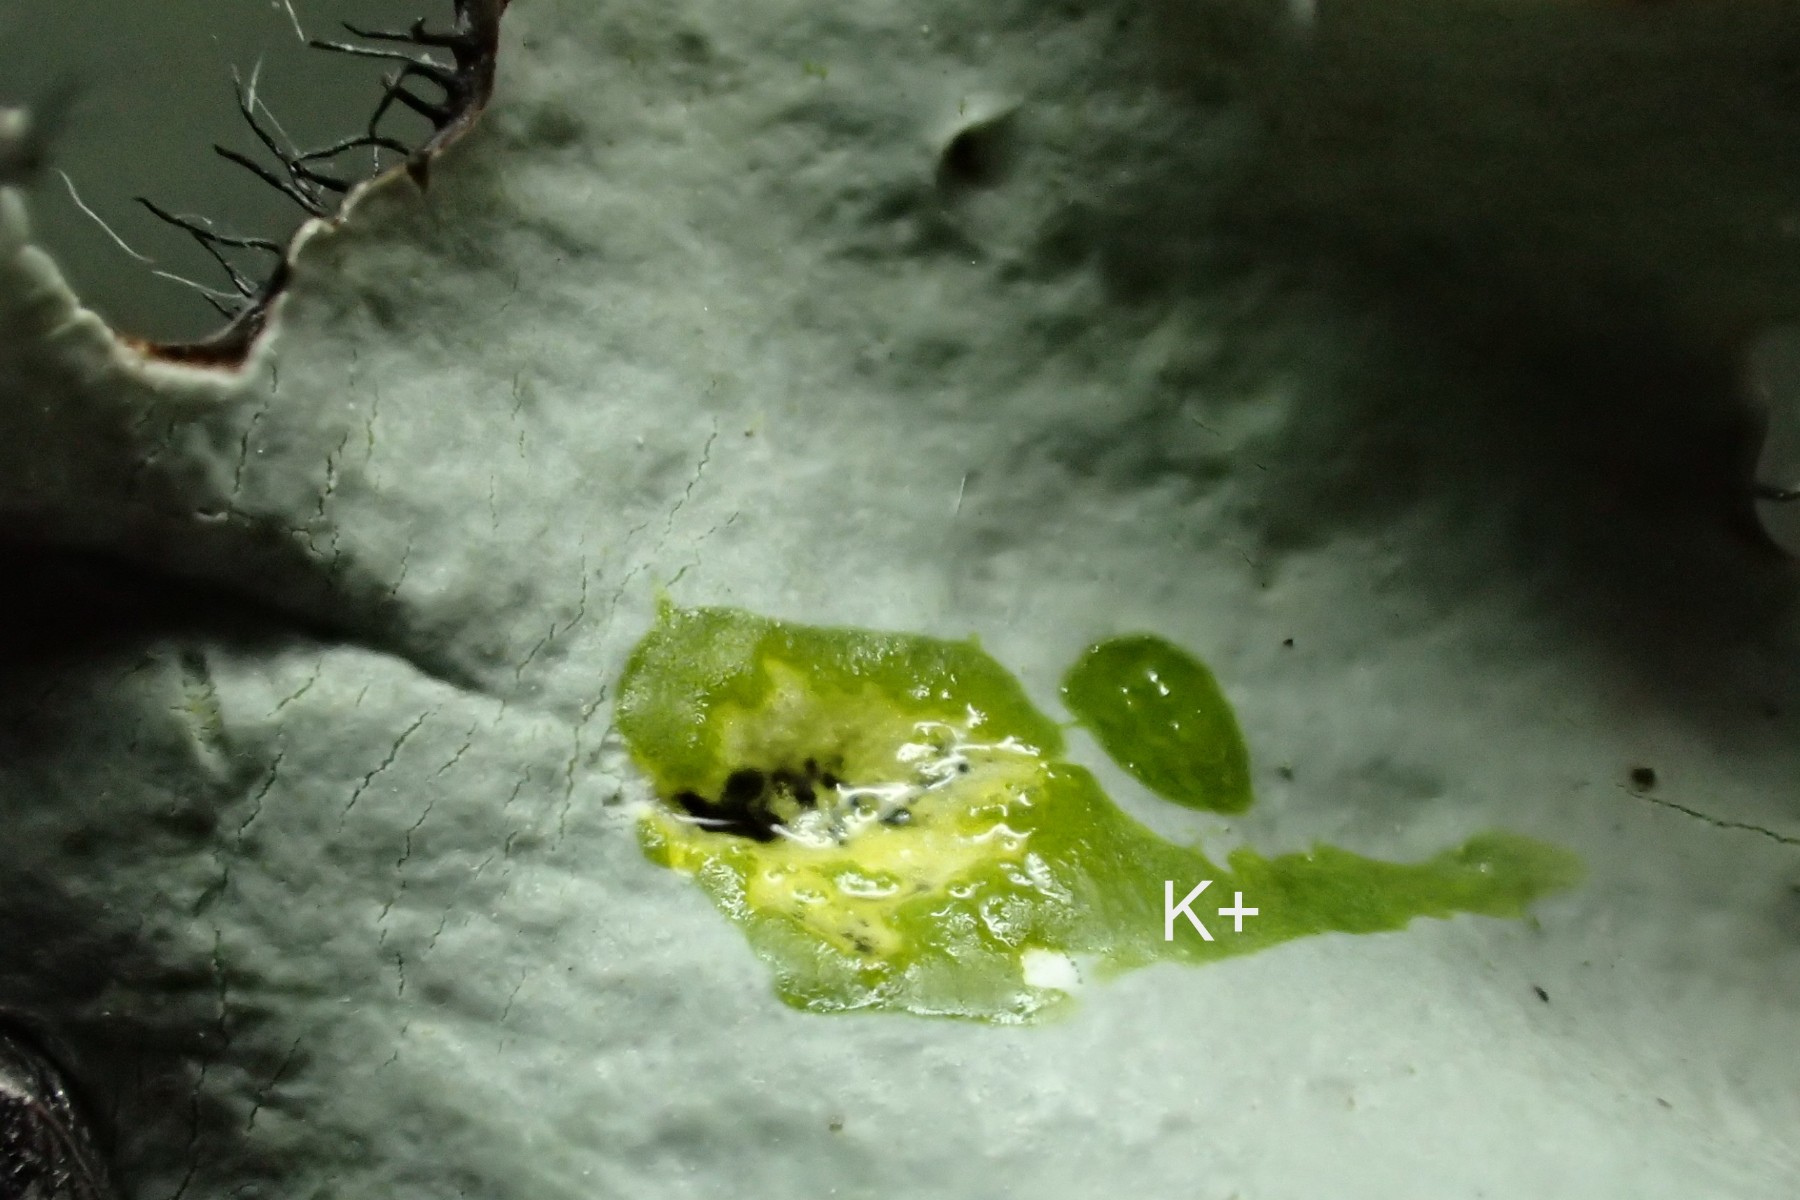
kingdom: Fungi
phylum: Ascomycota
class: Lecanoromycetes
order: Lecanorales
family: Parmeliaceae
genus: Parmotrema
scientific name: Parmotrema perlatum
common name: trådet skållav
